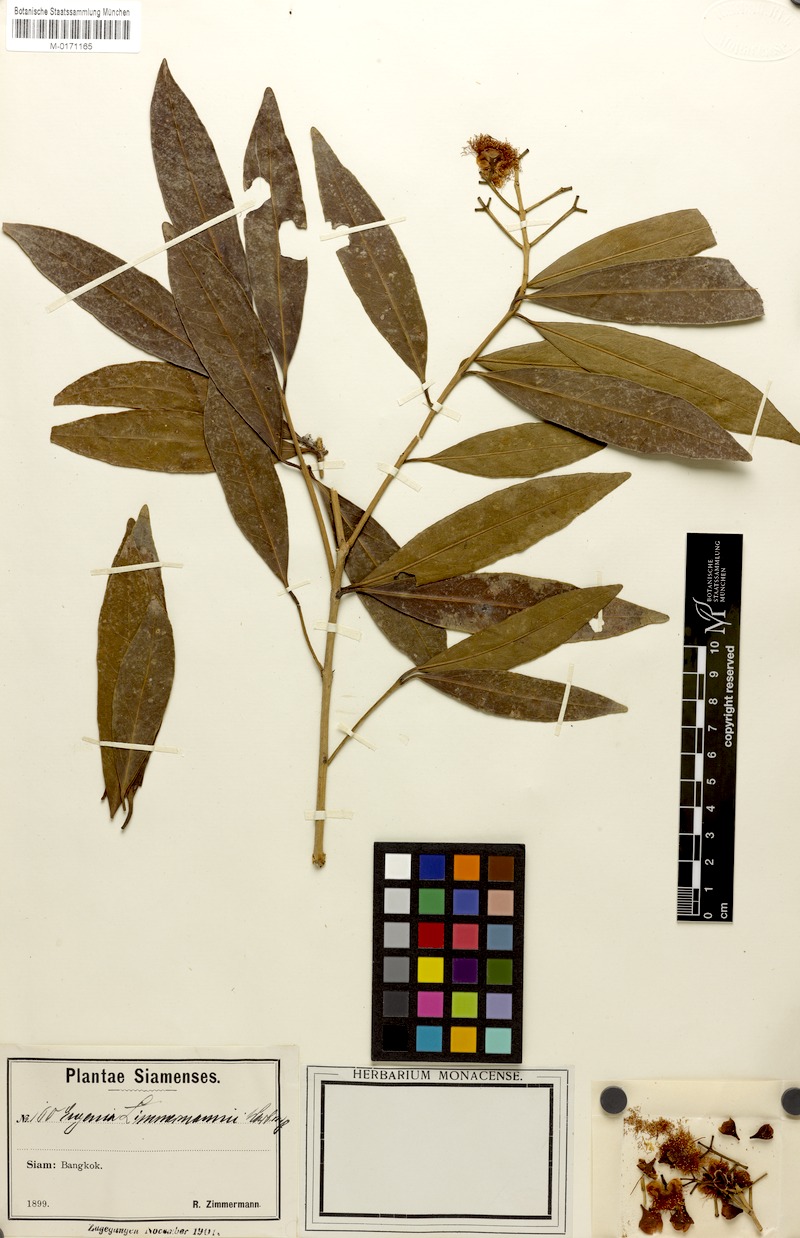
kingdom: Plantae
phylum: Tracheophyta
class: Magnoliopsida
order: Myrtales
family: Myrtaceae
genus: Syzygium
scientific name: Syzygium zimmermannii
